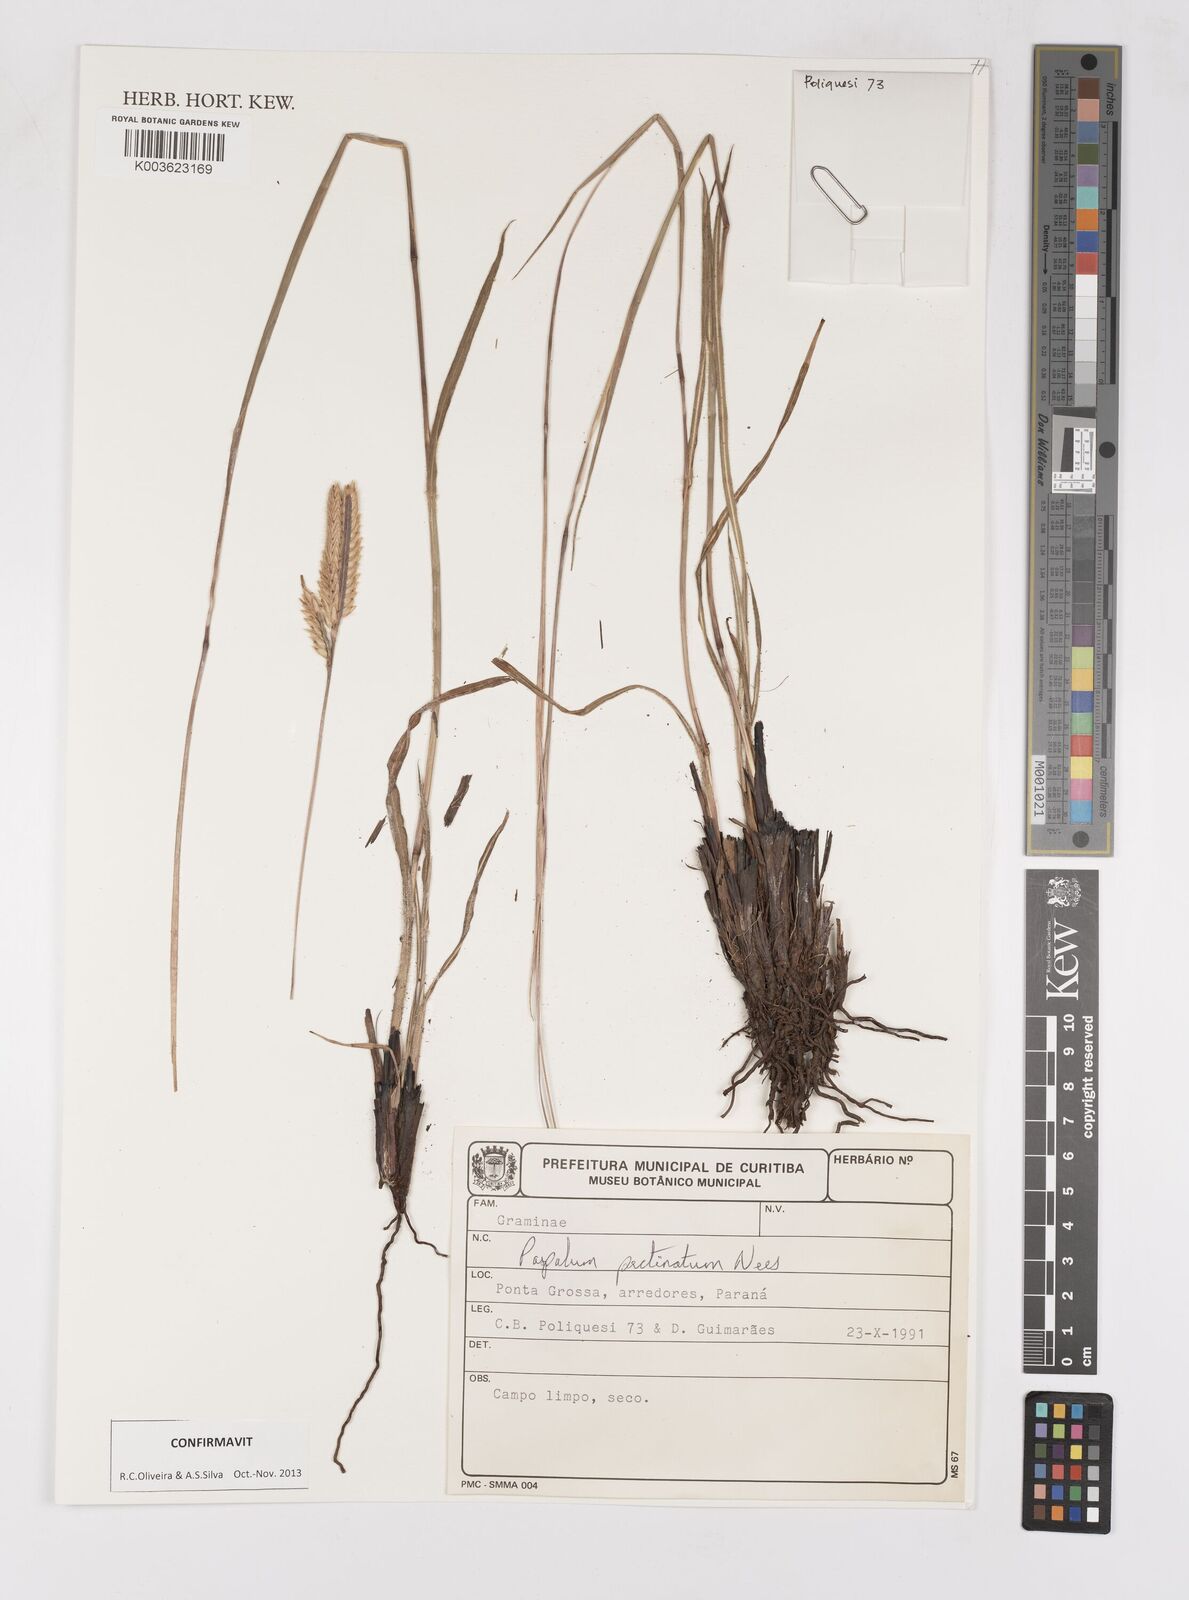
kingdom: Plantae
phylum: Tracheophyta
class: Liliopsida
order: Poales
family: Poaceae
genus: Paspalum
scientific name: Paspalum pectinatum
